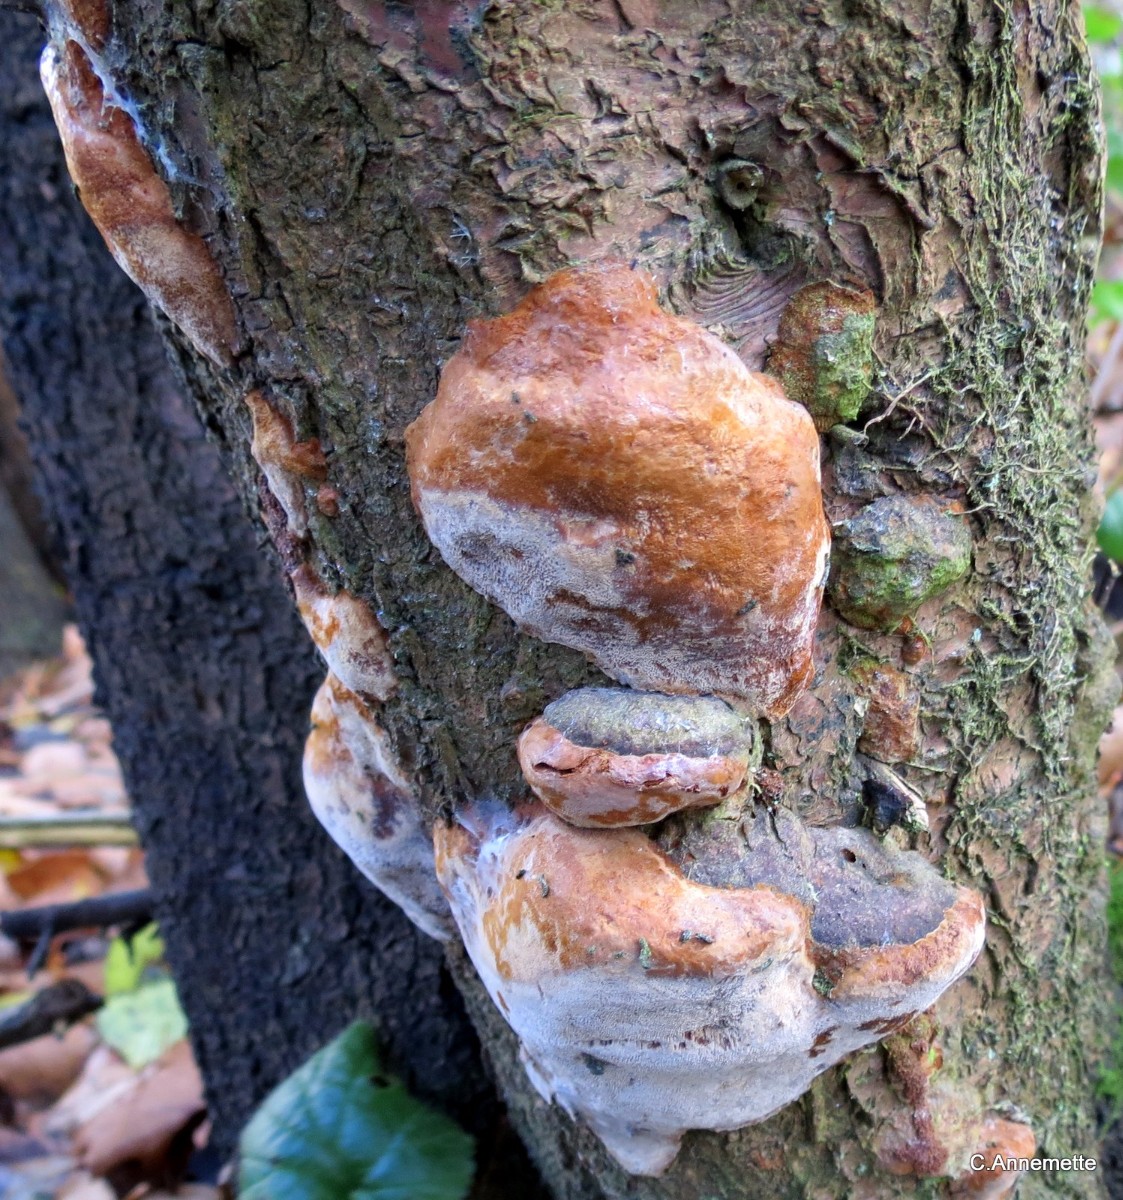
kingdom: Fungi
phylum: Basidiomycota
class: Agaricomycetes
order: Hymenochaetales
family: Hymenochaetaceae
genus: Phellinus
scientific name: Phellinus pomaceus
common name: blomme-ildporesvamp
